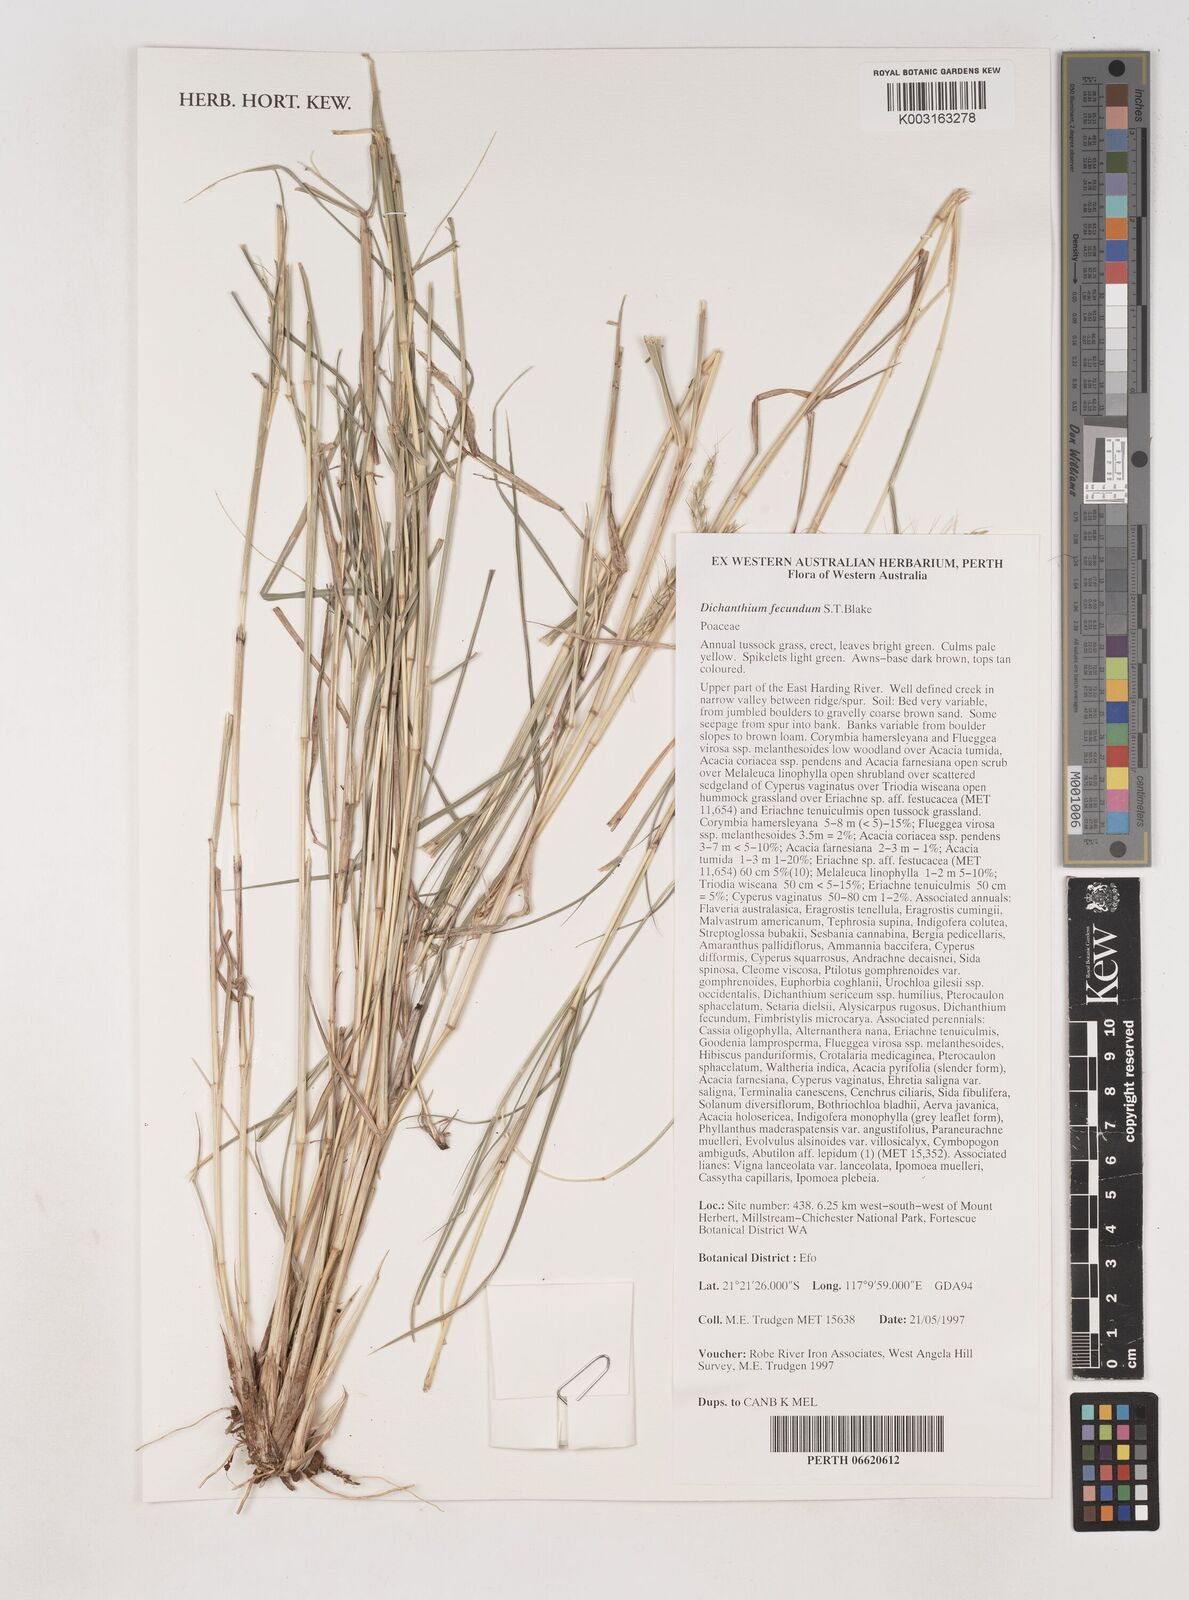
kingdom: Plantae
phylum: Tracheophyta
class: Liliopsida
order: Poales
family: Poaceae
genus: Dichanthium
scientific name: Dichanthium fecundum
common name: Bundle-bundle
